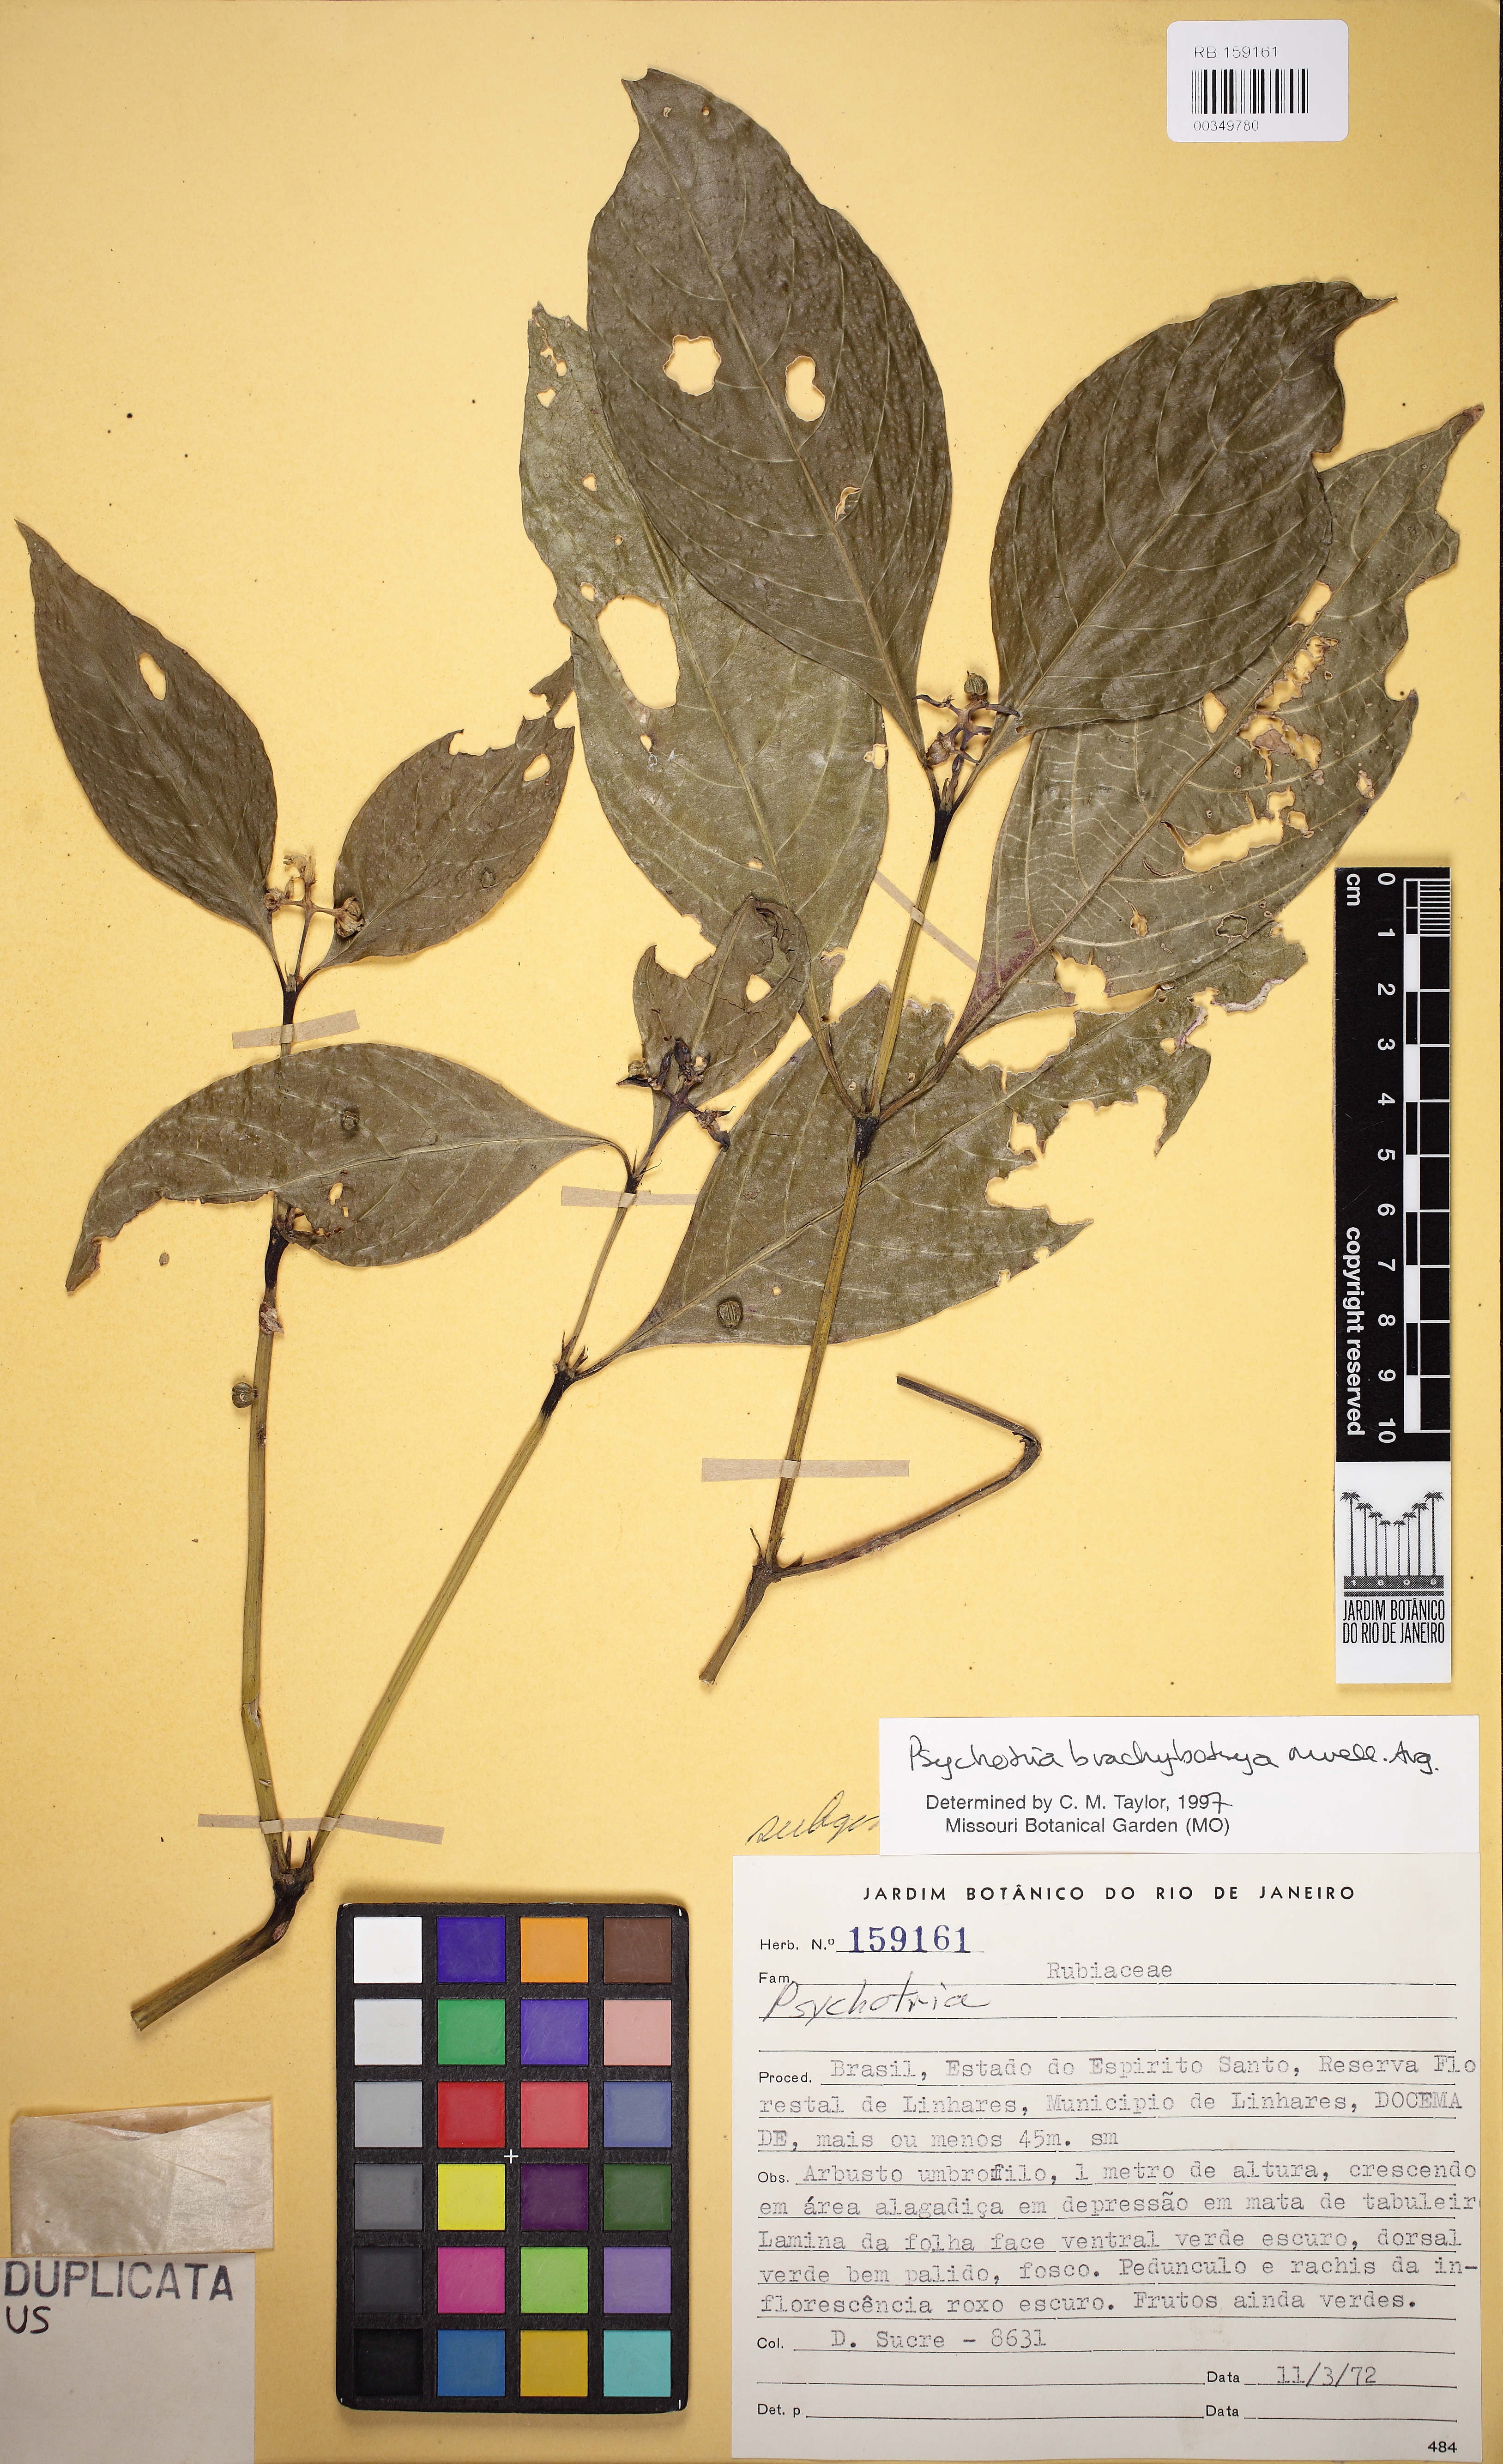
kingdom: Plantae
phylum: Tracheophyta
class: Magnoliopsida
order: Gentianales
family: Rubiaceae
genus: Palicourea
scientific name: Palicourea gracilenta
